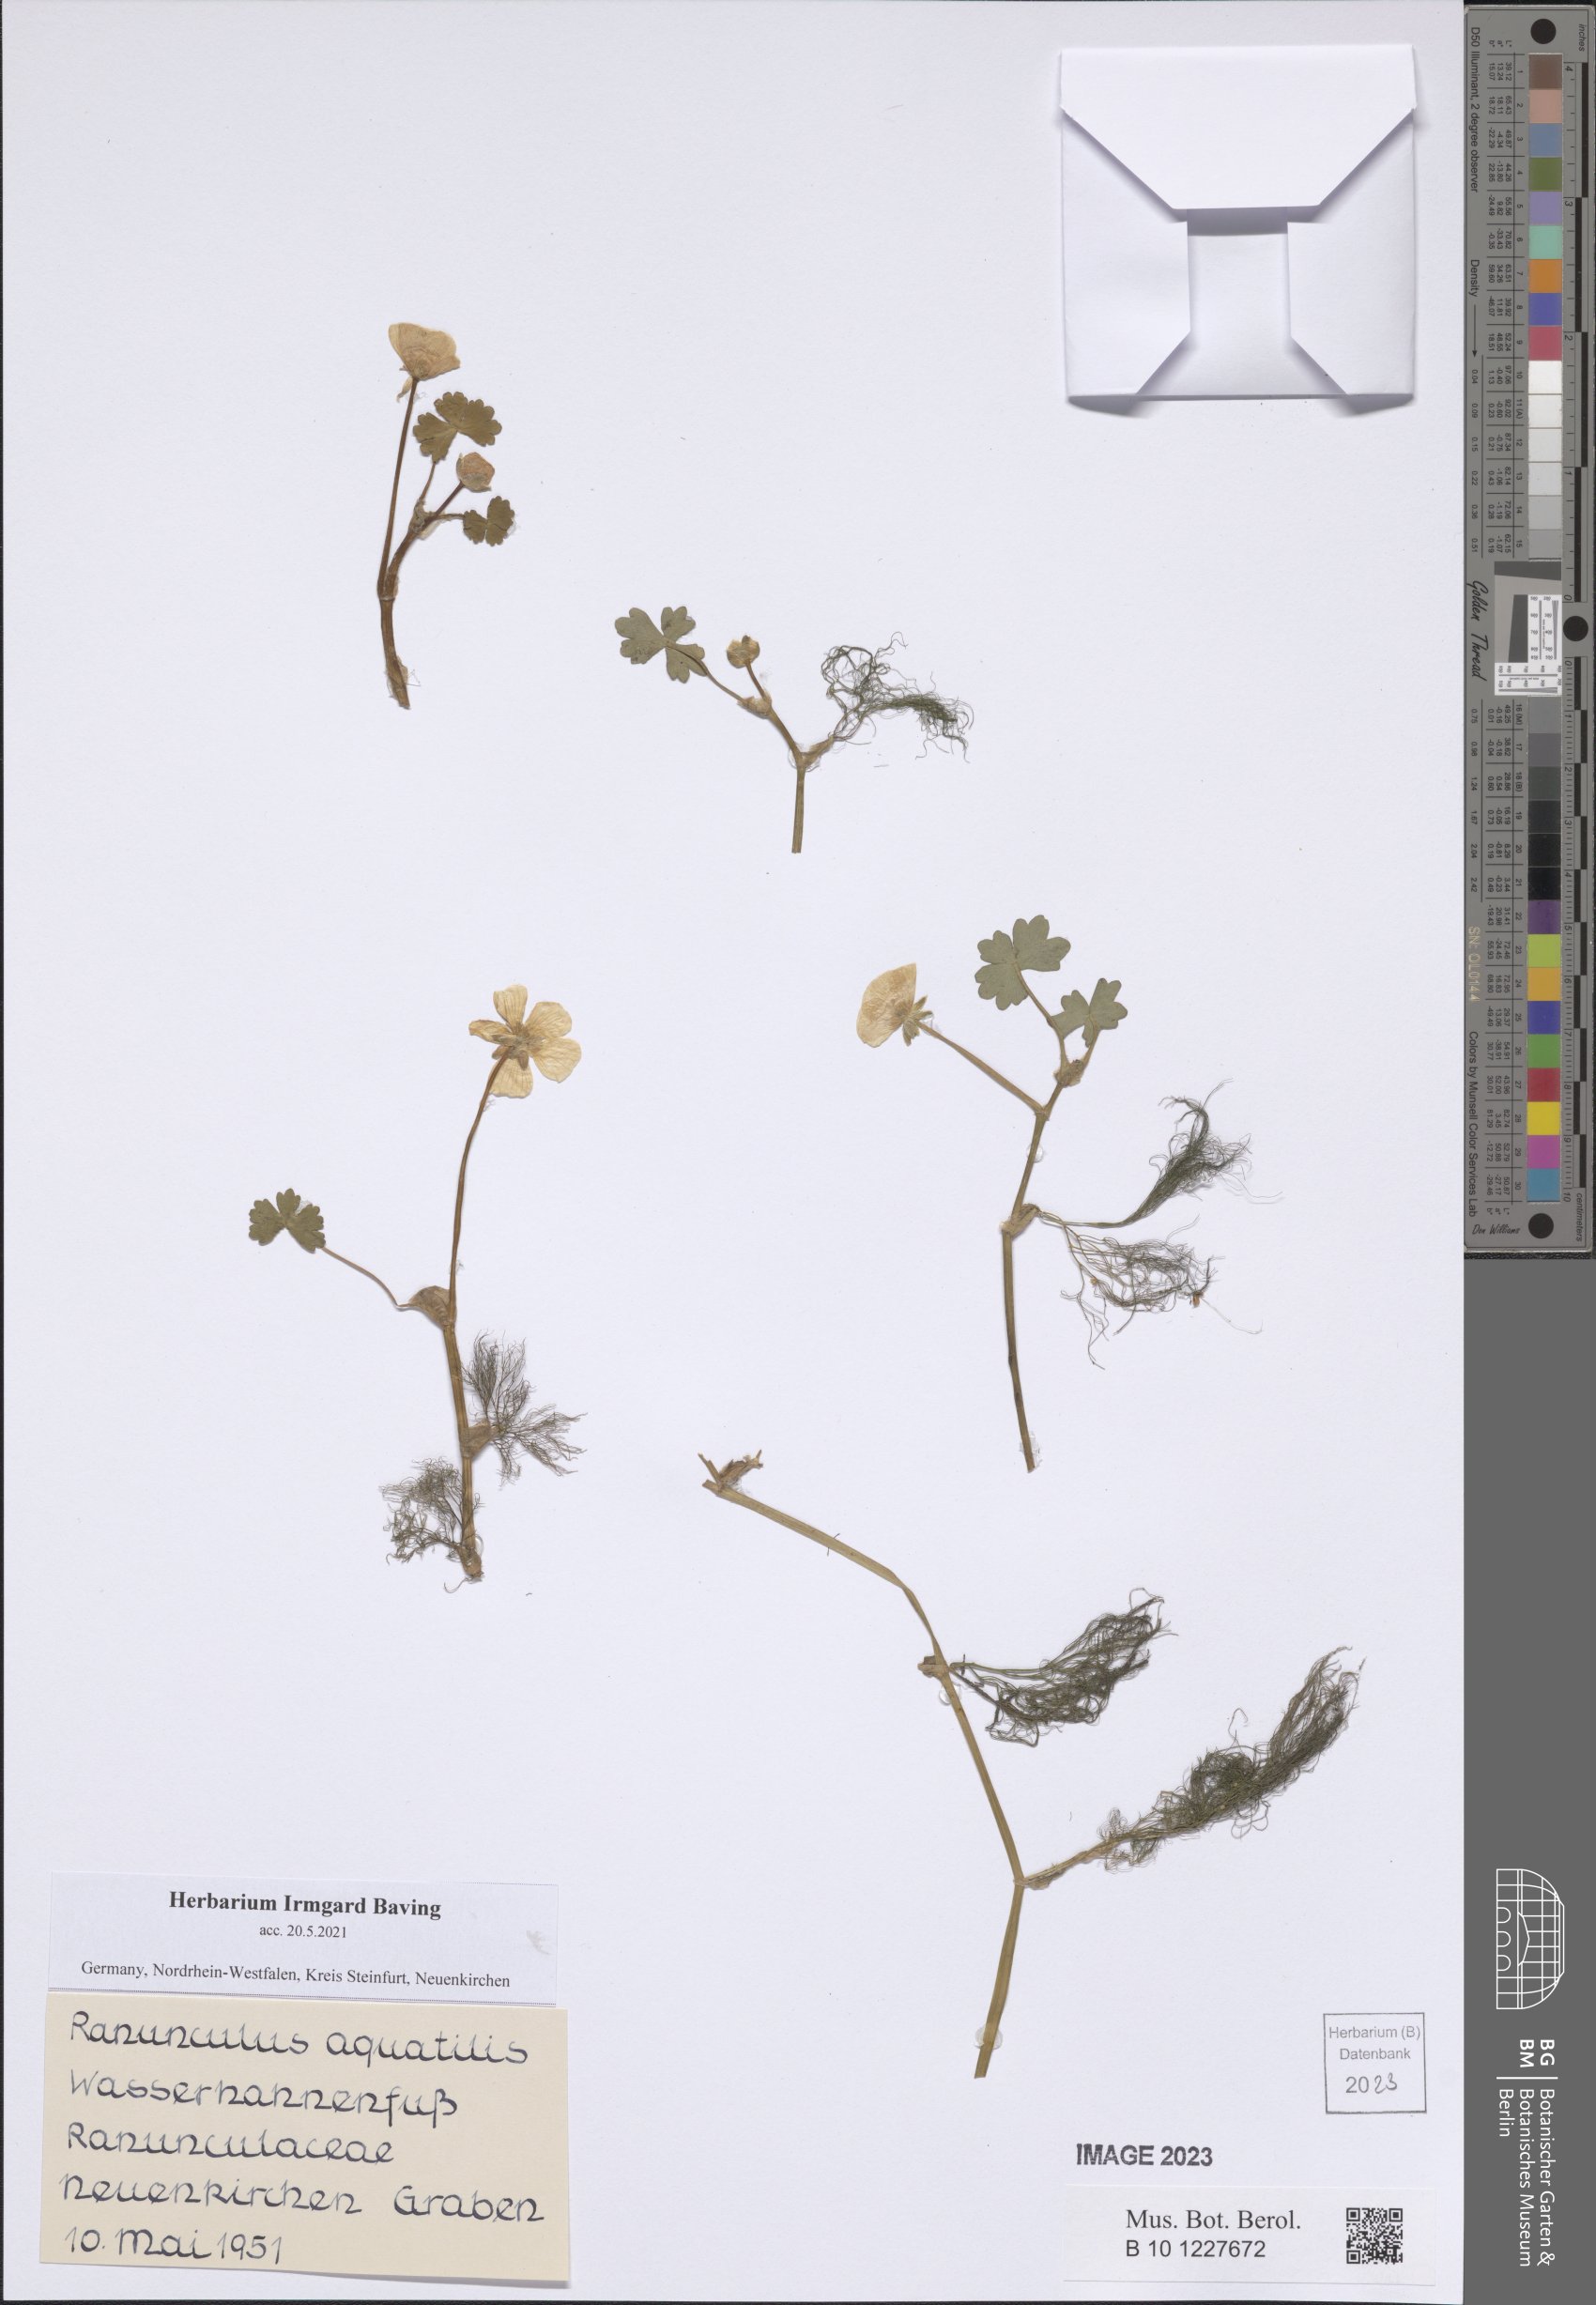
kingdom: Plantae
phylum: Tracheophyta
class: Magnoliopsida
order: Ranunculales
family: Ranunculaceae
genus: Ranunculus
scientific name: Ranunculus aquatilis
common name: Common water-crowfoot
